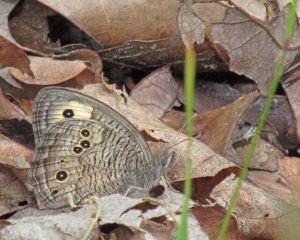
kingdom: Animalia
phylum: Arthropoda
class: Insecta
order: Lepidoptera
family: Nymphalidae
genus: Cercyonis
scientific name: Cercyonis pegala
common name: Common Wood-Nymph
